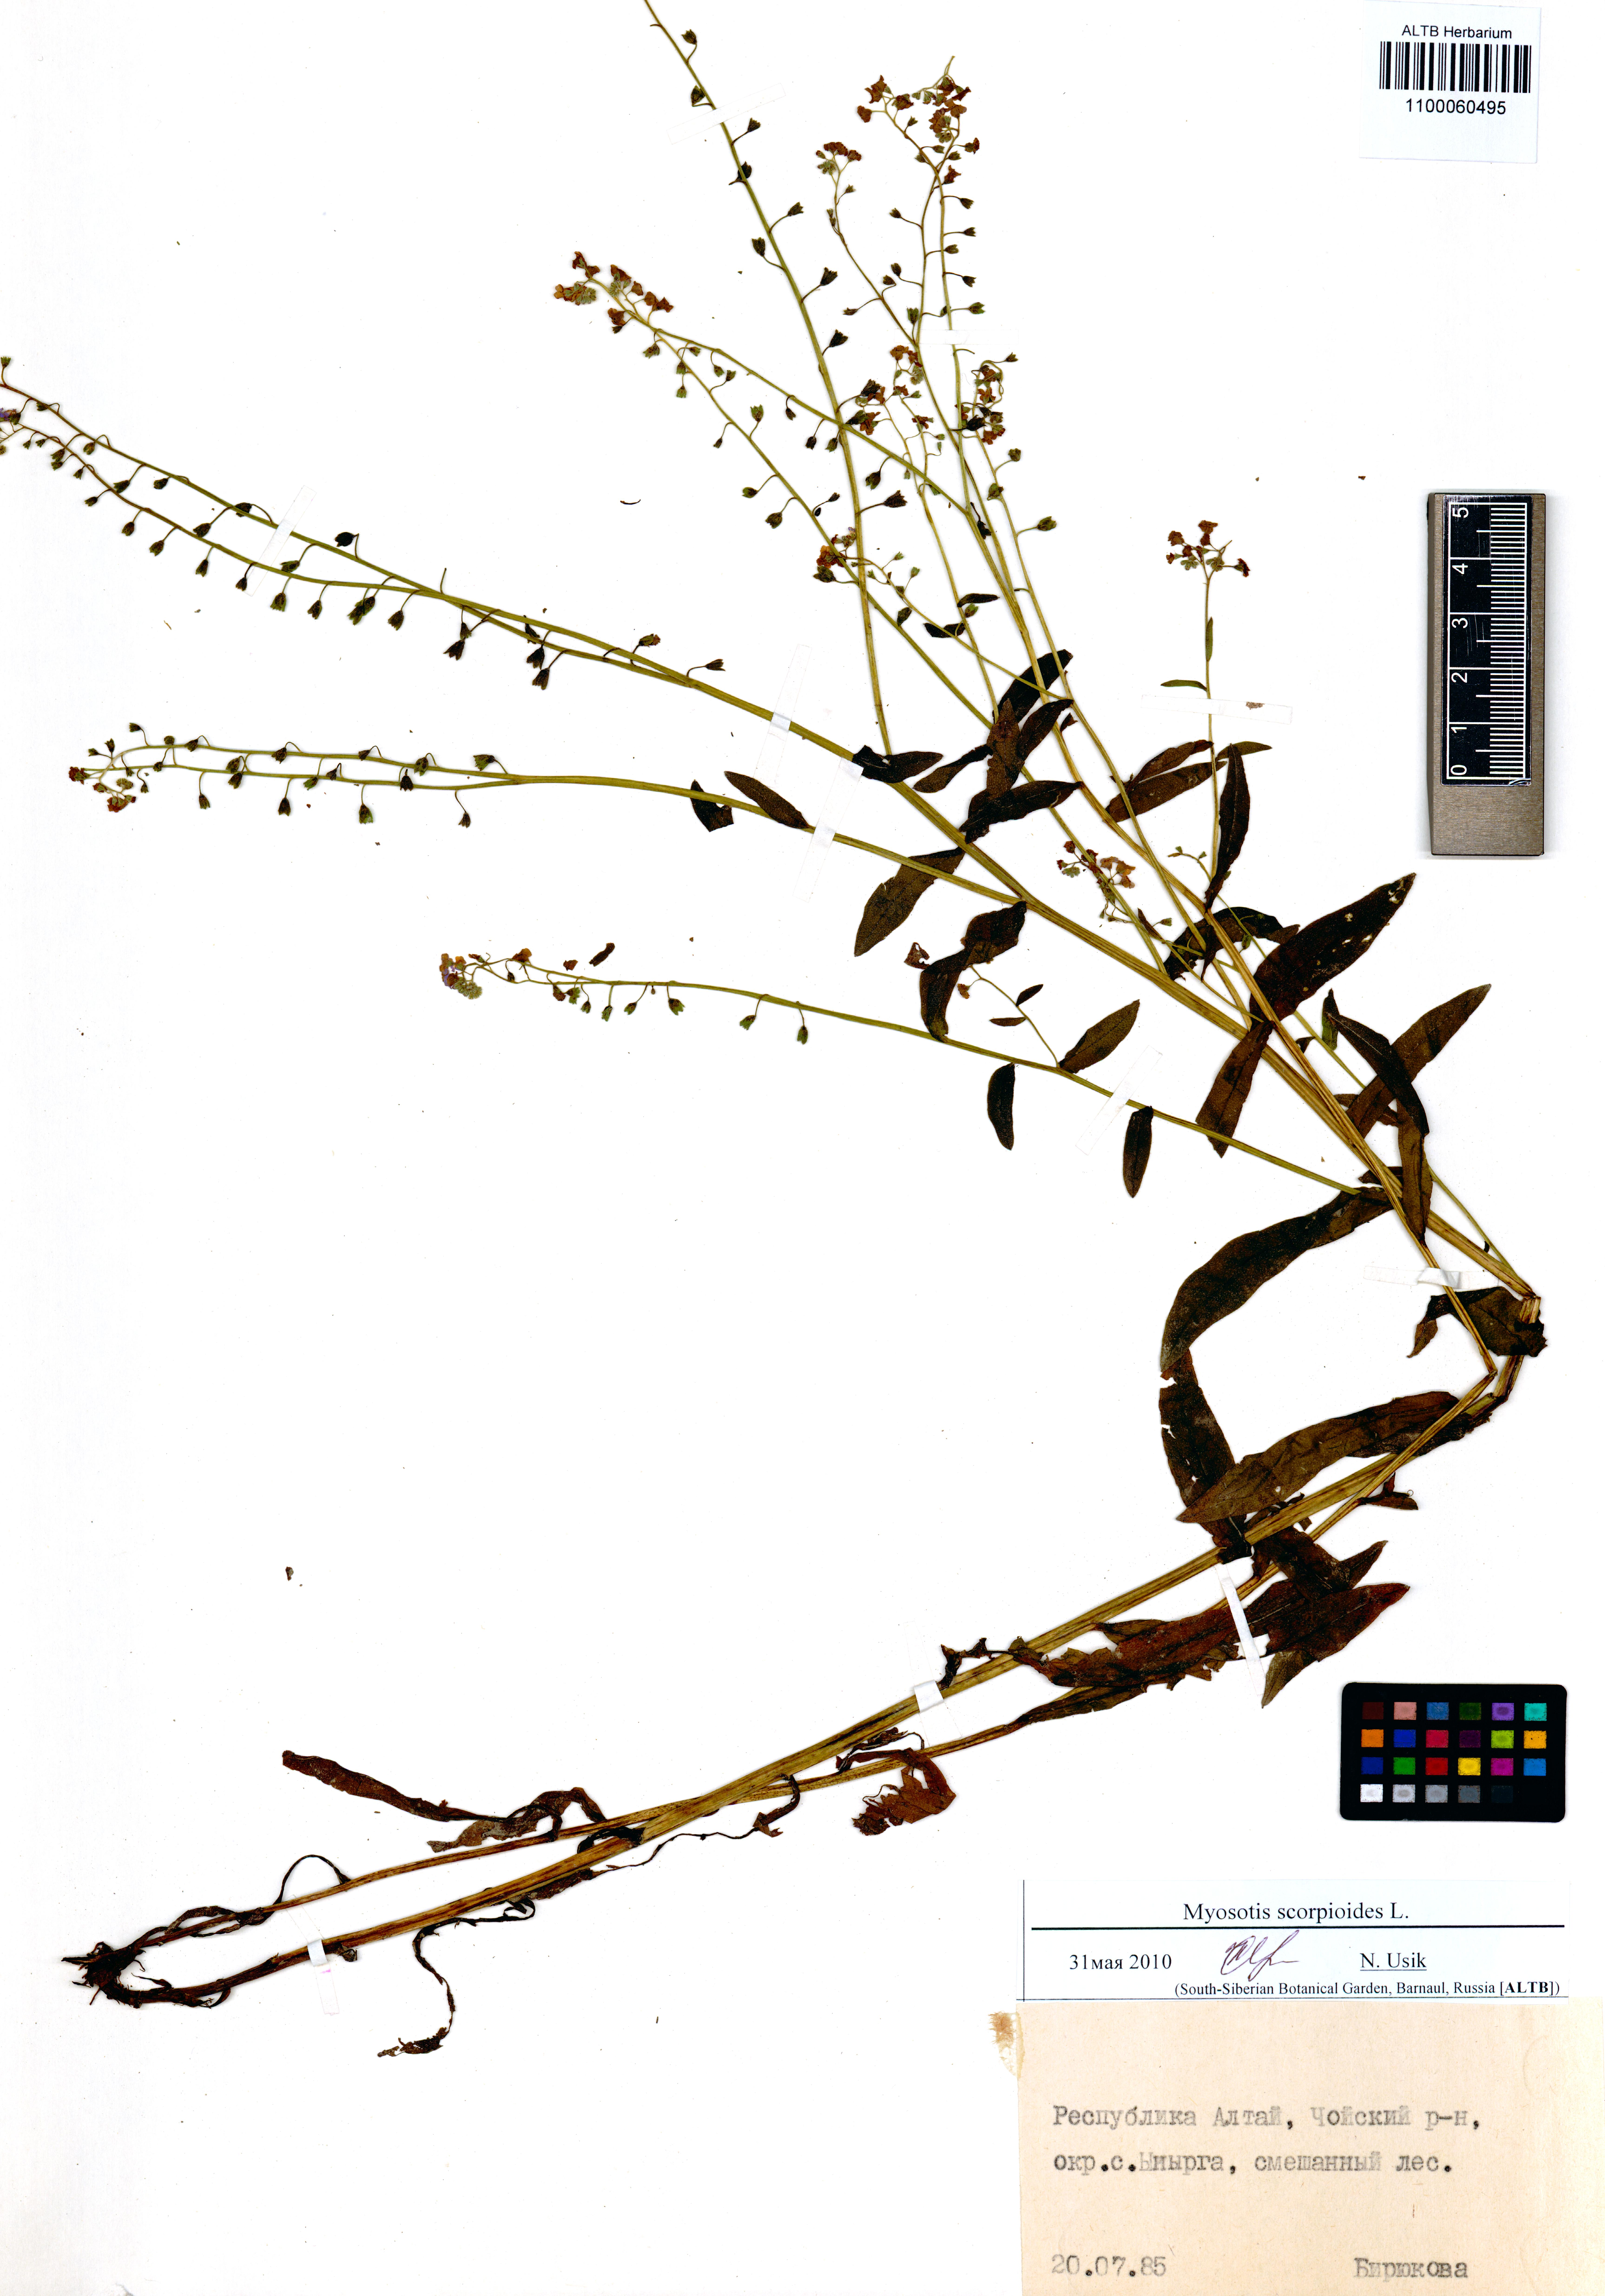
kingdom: Plantae
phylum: Tracheophyta
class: Magnoliopsida
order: Boraginales
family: Boraginaceae
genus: Myosotis
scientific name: Myosotis scorpioides
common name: Water forget-me-not
